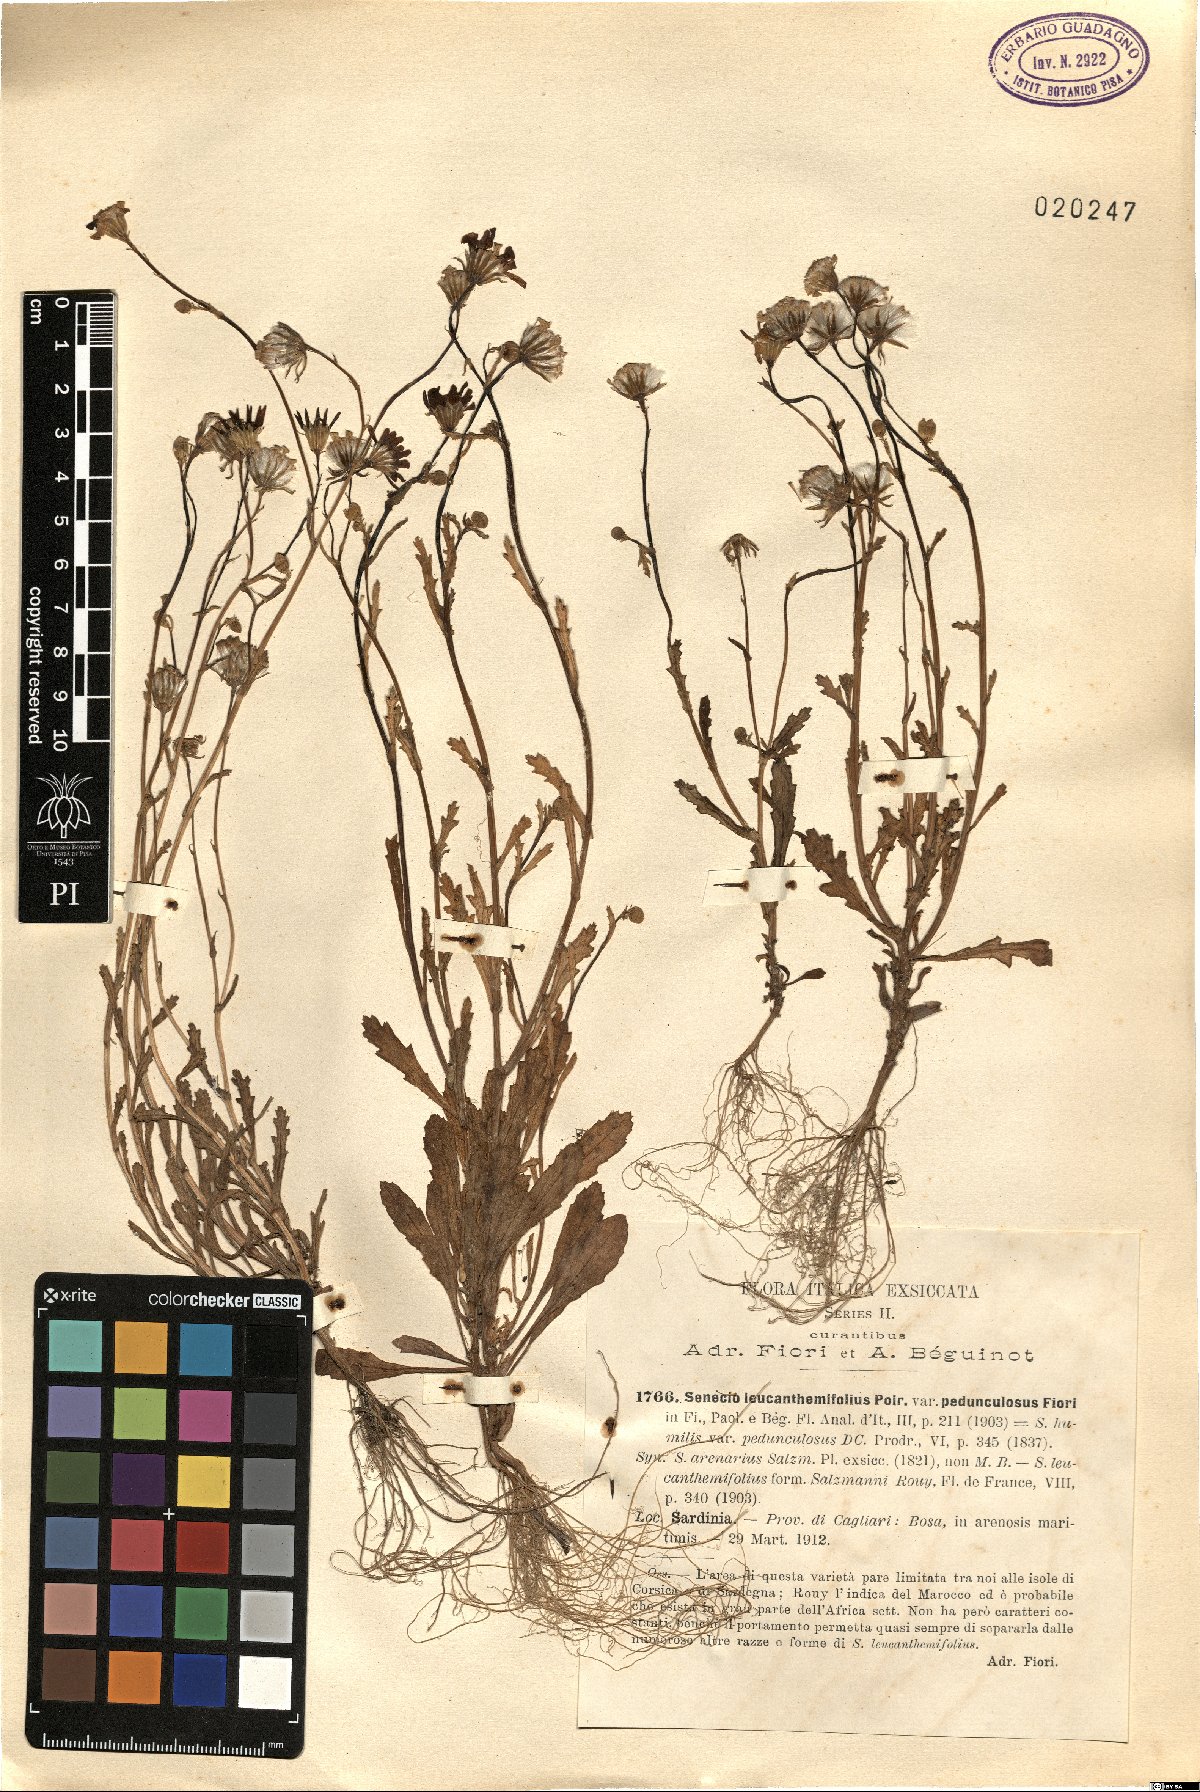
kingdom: Plantae
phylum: Tracheophyta
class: Magnoliopsida
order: Asterales
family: Asteraceae
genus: Senecio
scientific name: Senecio leucanthemifolius
